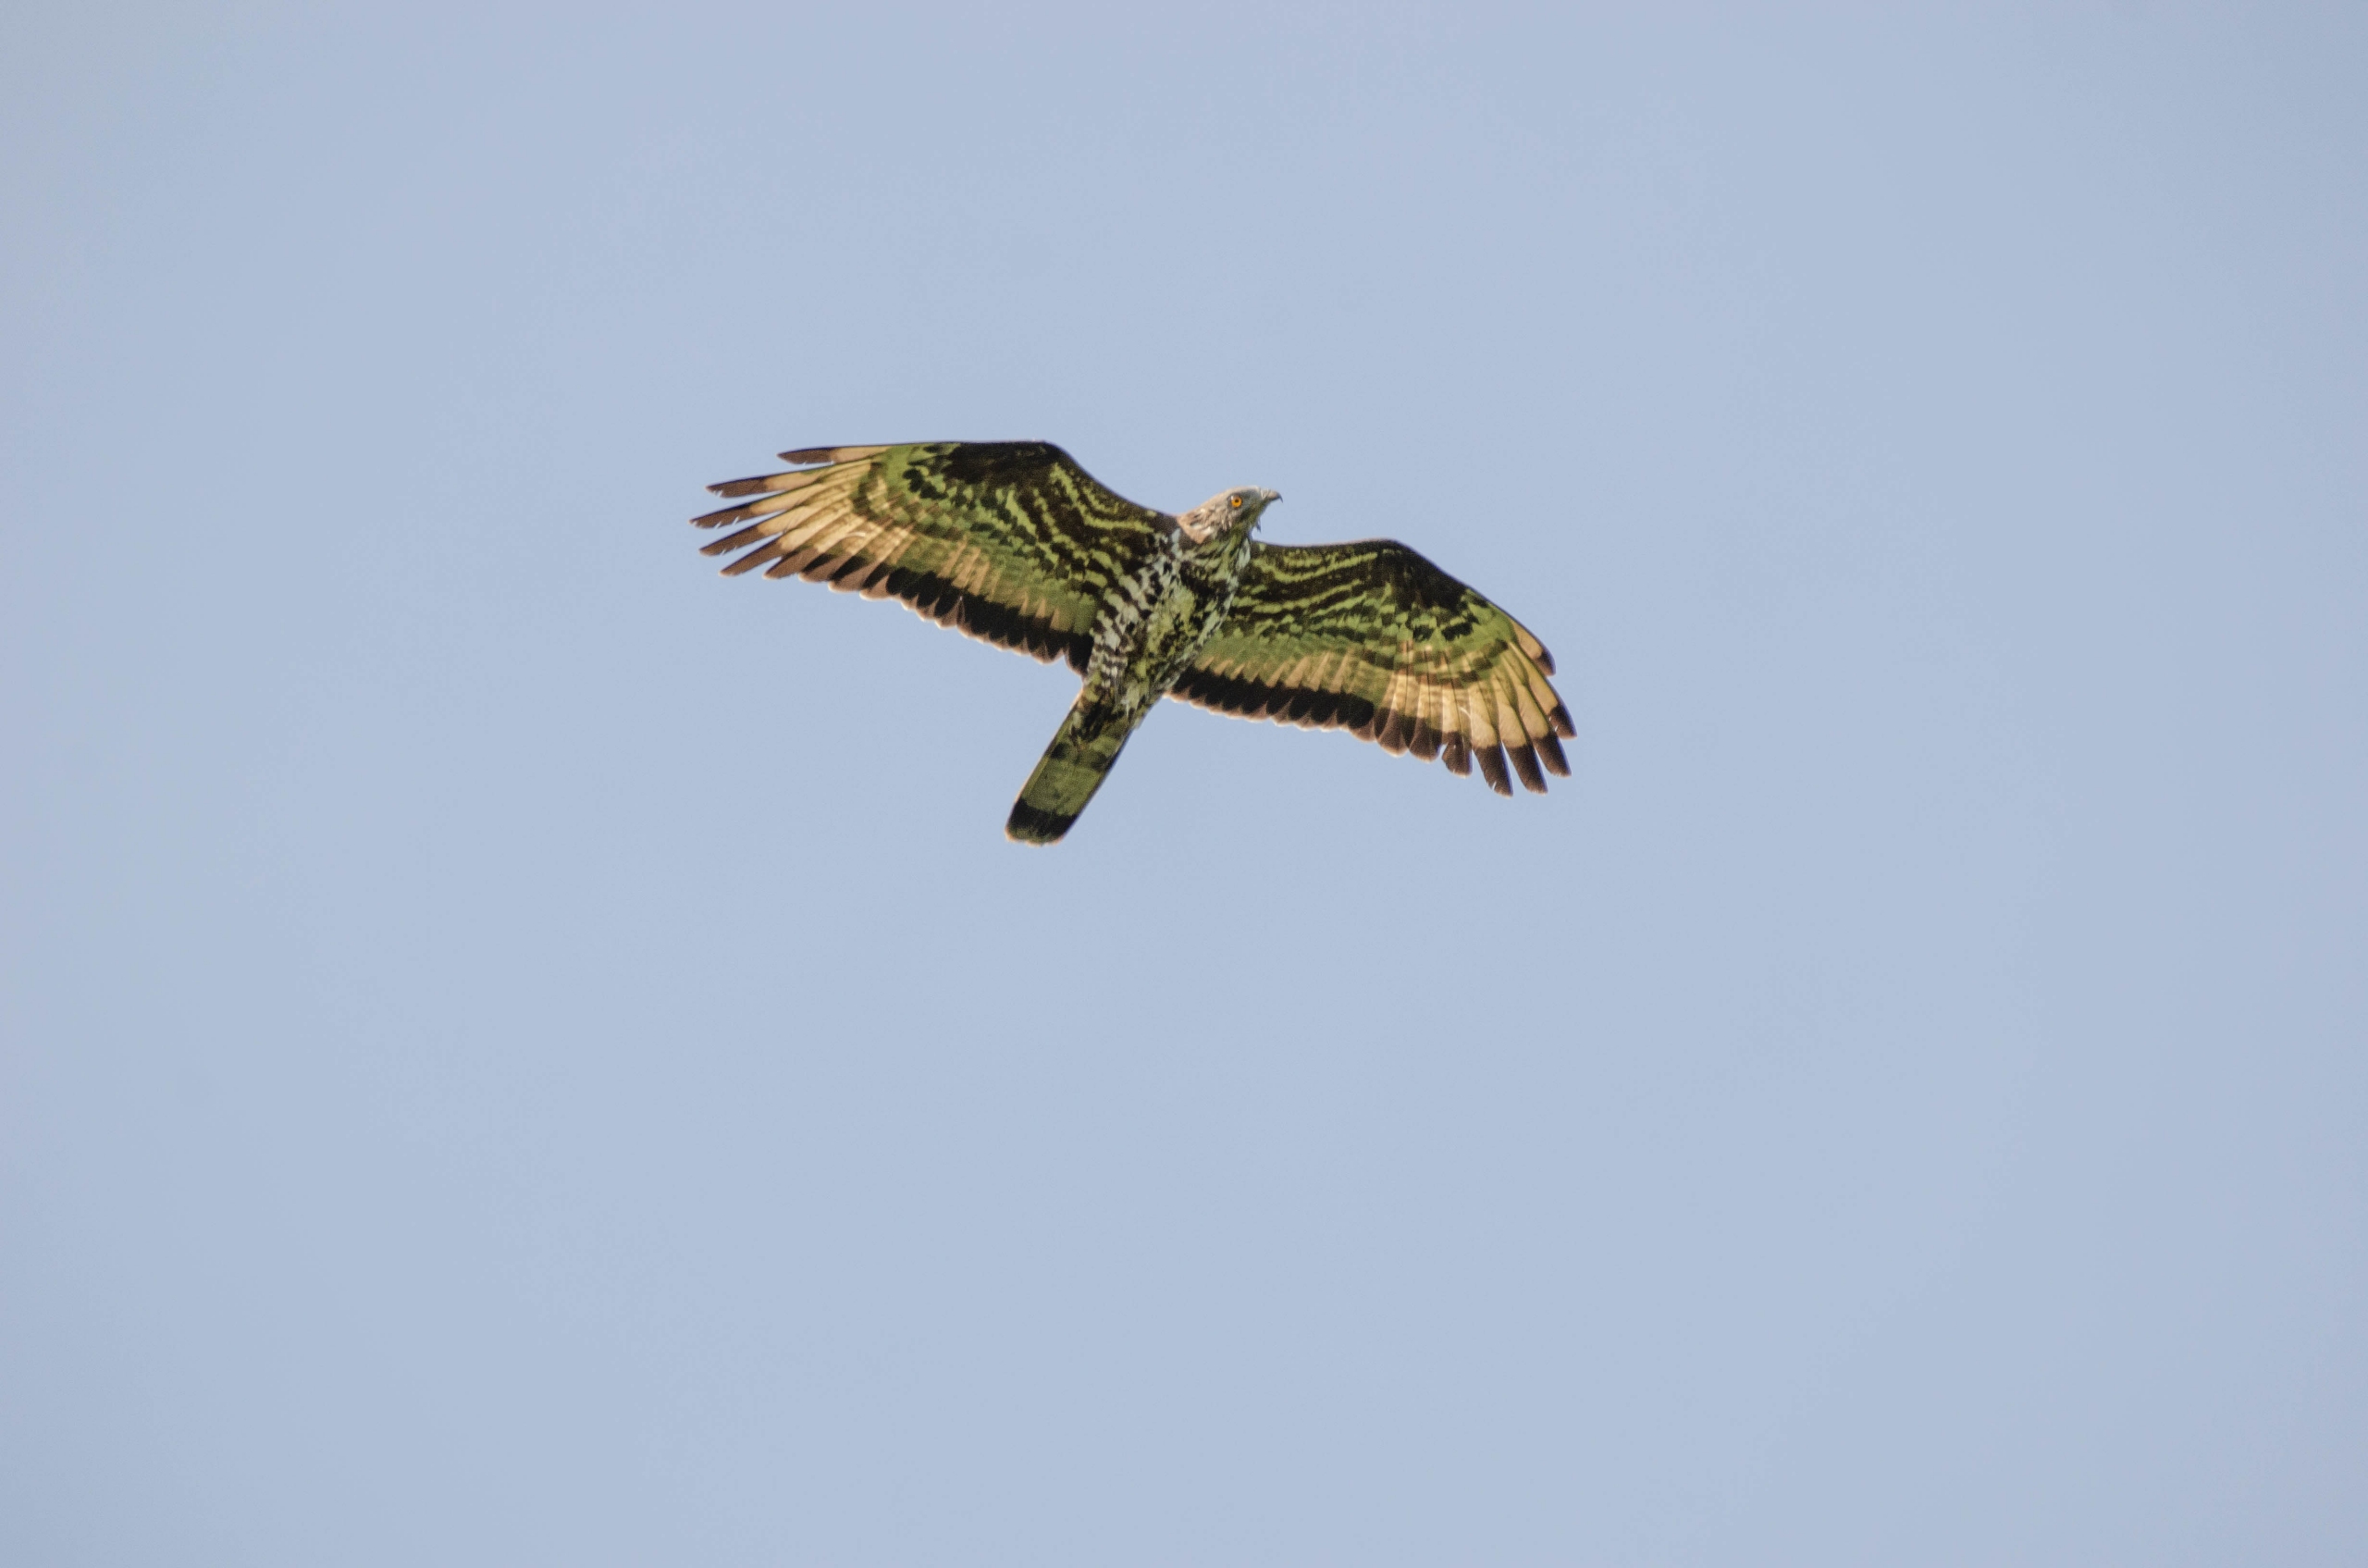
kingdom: Animalia
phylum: Chordata
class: Aves
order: Accipitriformes
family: Accipitridae
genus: Pernis
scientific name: Pernis apivorus
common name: Hvepsevåge
